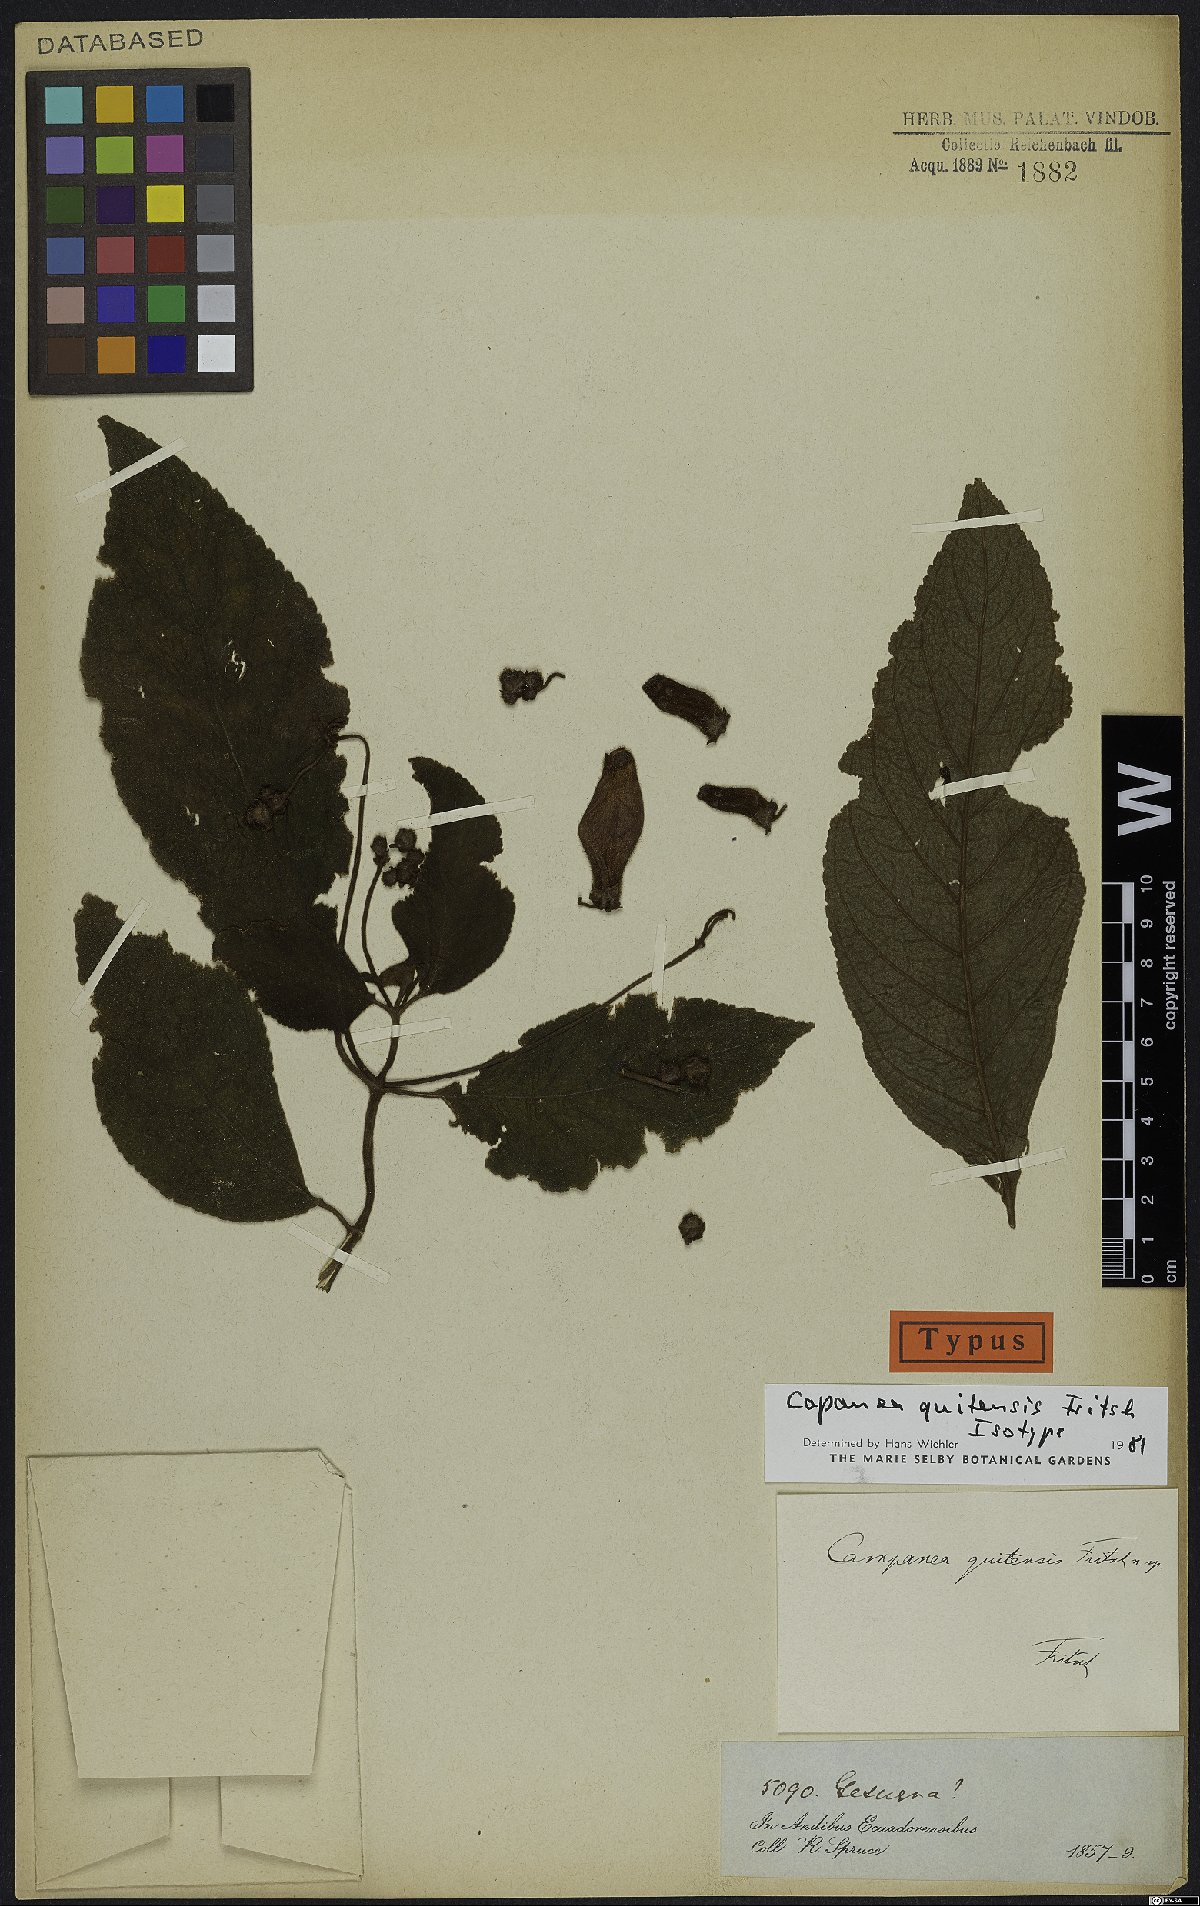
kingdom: Plantae
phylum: Tracheophyta
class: Magnoliopsida
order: Lamiales
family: Gesneriaceae
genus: Kohleria
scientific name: Kohleria affinis
